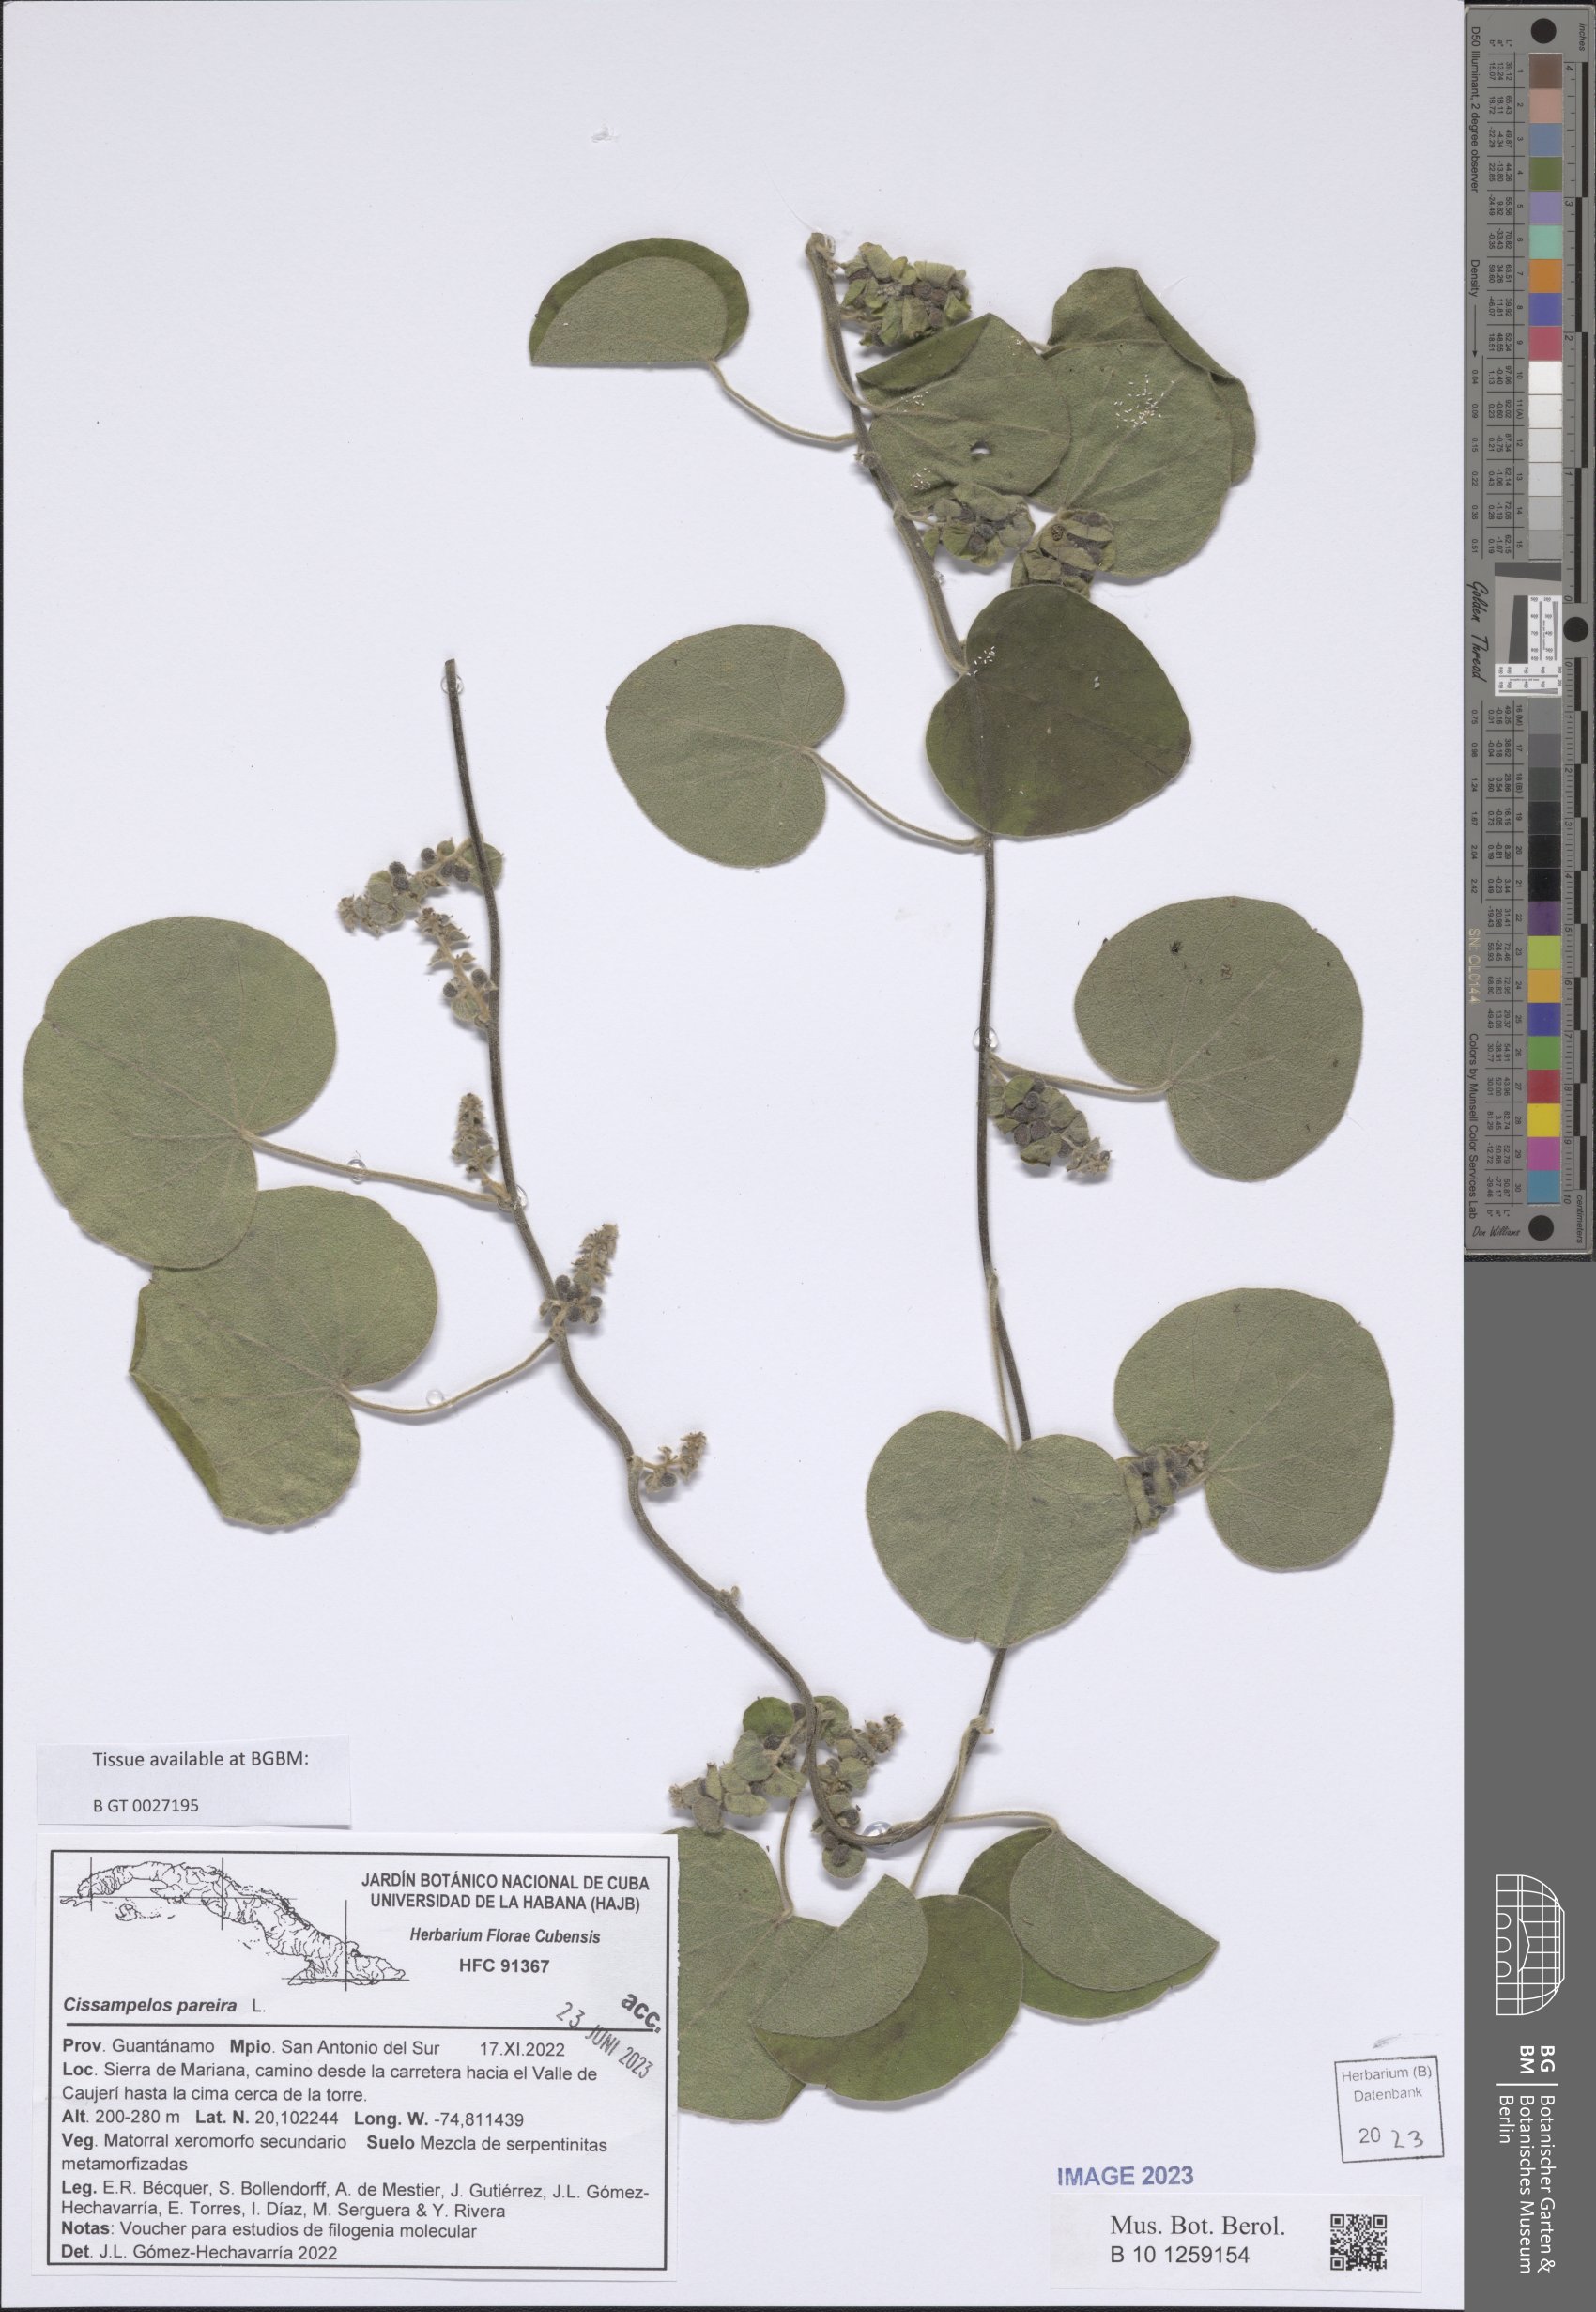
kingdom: Plantae
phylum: Tracheophyta
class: Magnoliopsida
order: Ranunculales
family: Menispermaceae
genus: Cissampelos
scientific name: Cissampelos pareira
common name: Velvetleaf
